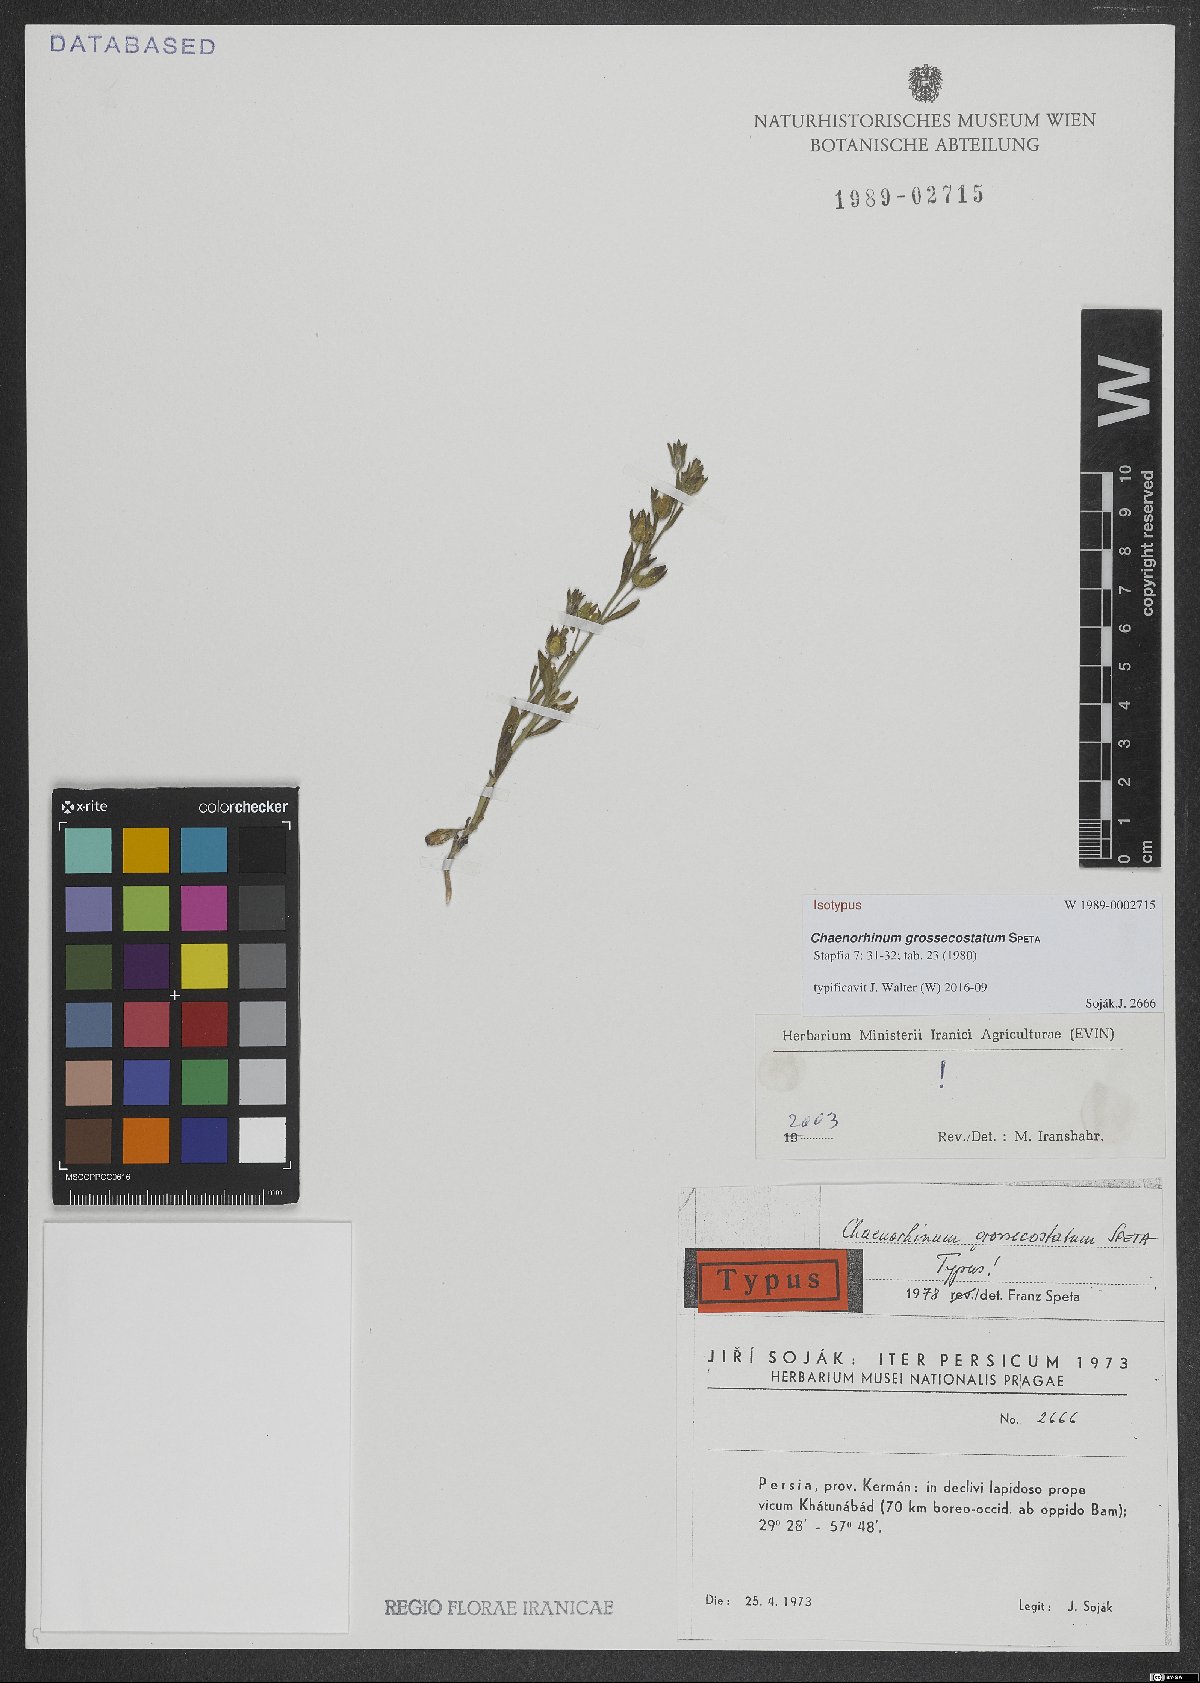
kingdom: Plantae
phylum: Tracheophyta
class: Magnoliopsida
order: Lamiales
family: Plantaginaceae
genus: Chaenorhinum
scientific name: Chaenorhinum grossecostatum
